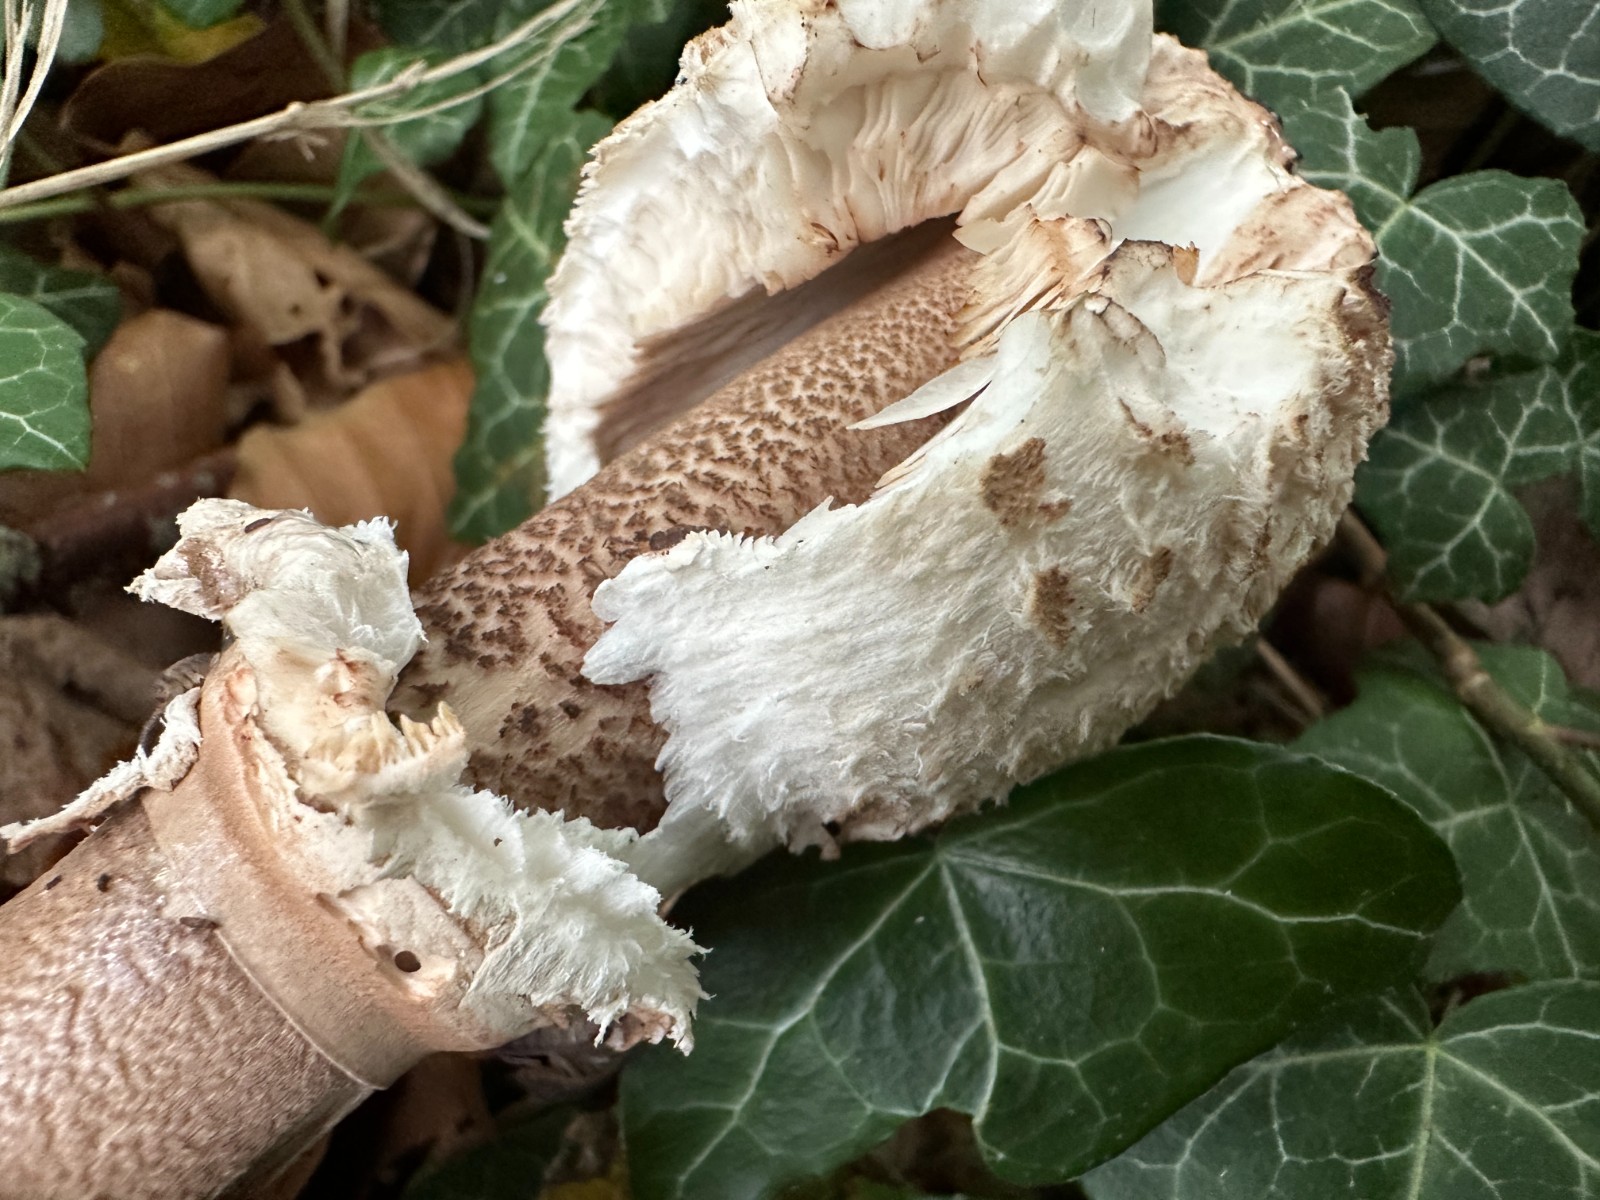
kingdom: Fungi
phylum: Basidiomycota
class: Agaricomycetes
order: Agaricales
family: Agaricaceae
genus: Macrolepiota
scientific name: Macrolepiota procera
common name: stor kæmpeparasolhat
